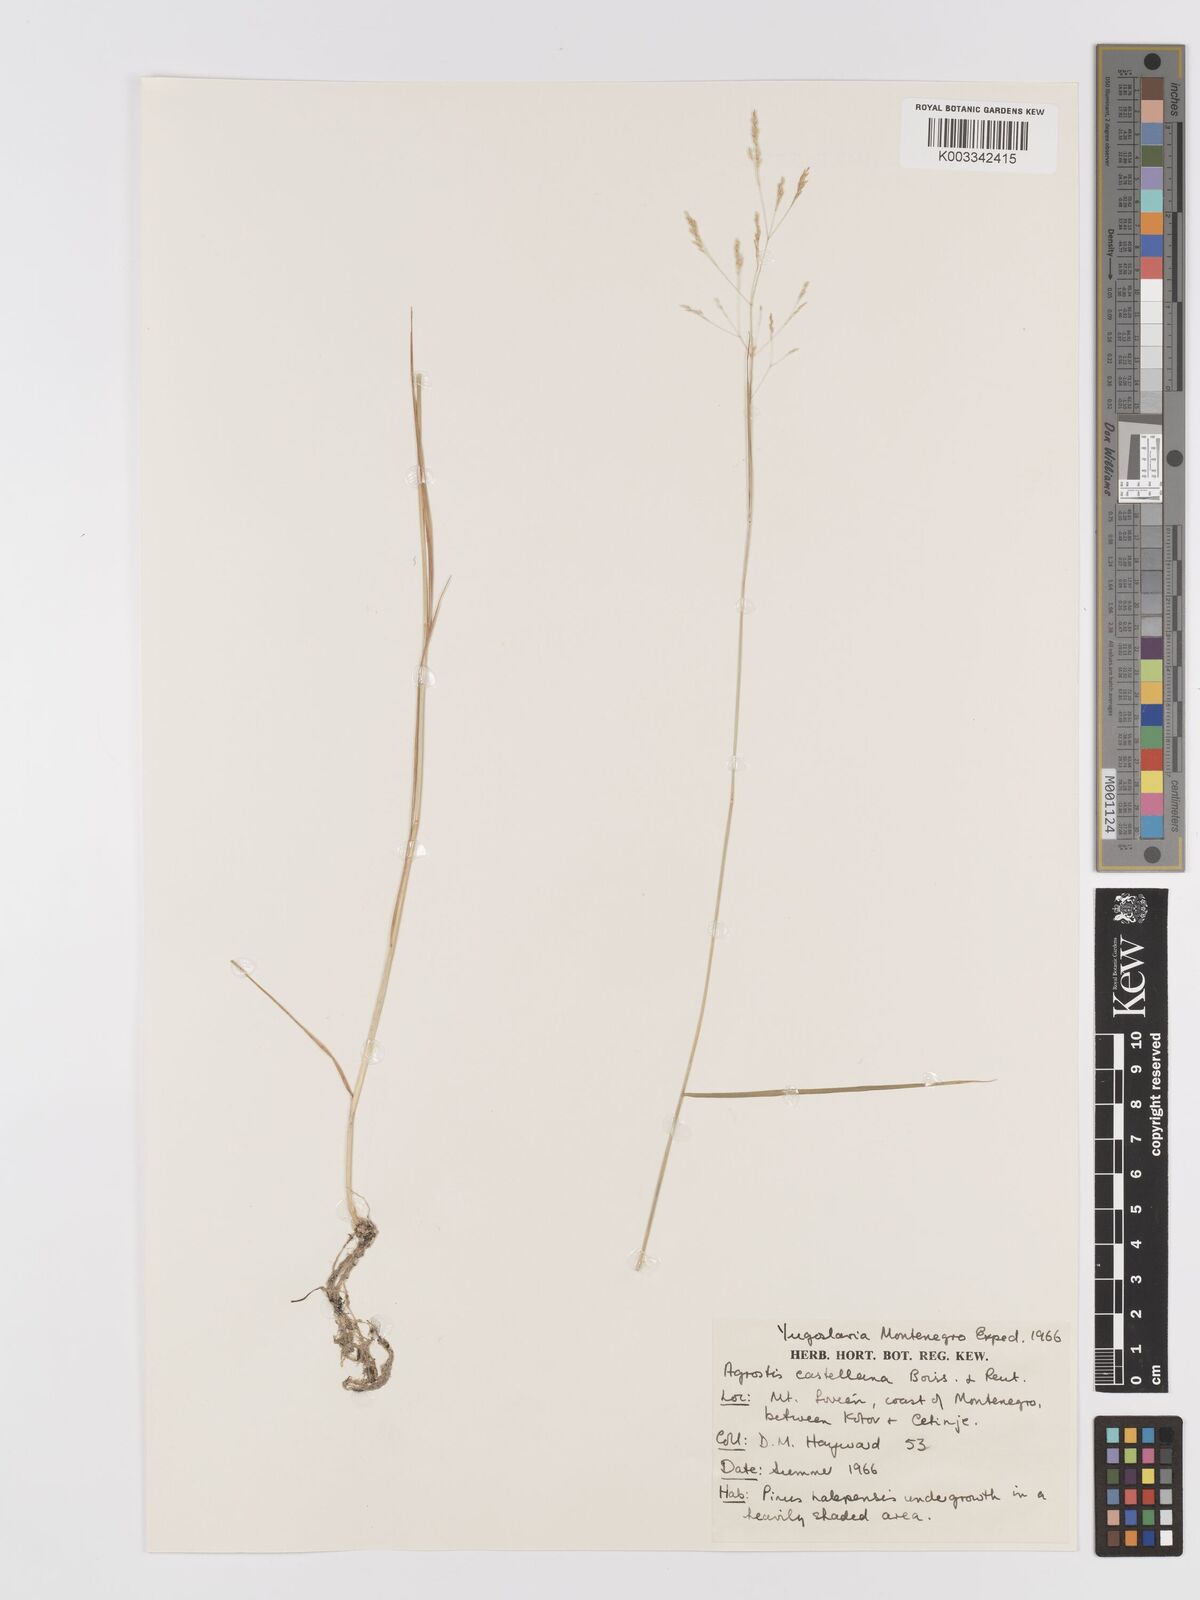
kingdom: Plantae
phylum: Tracheophyta
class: Liliopsida
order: Poales
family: Poaceae
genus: Agrostis
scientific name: Agrostis castellana
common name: Highland bent
